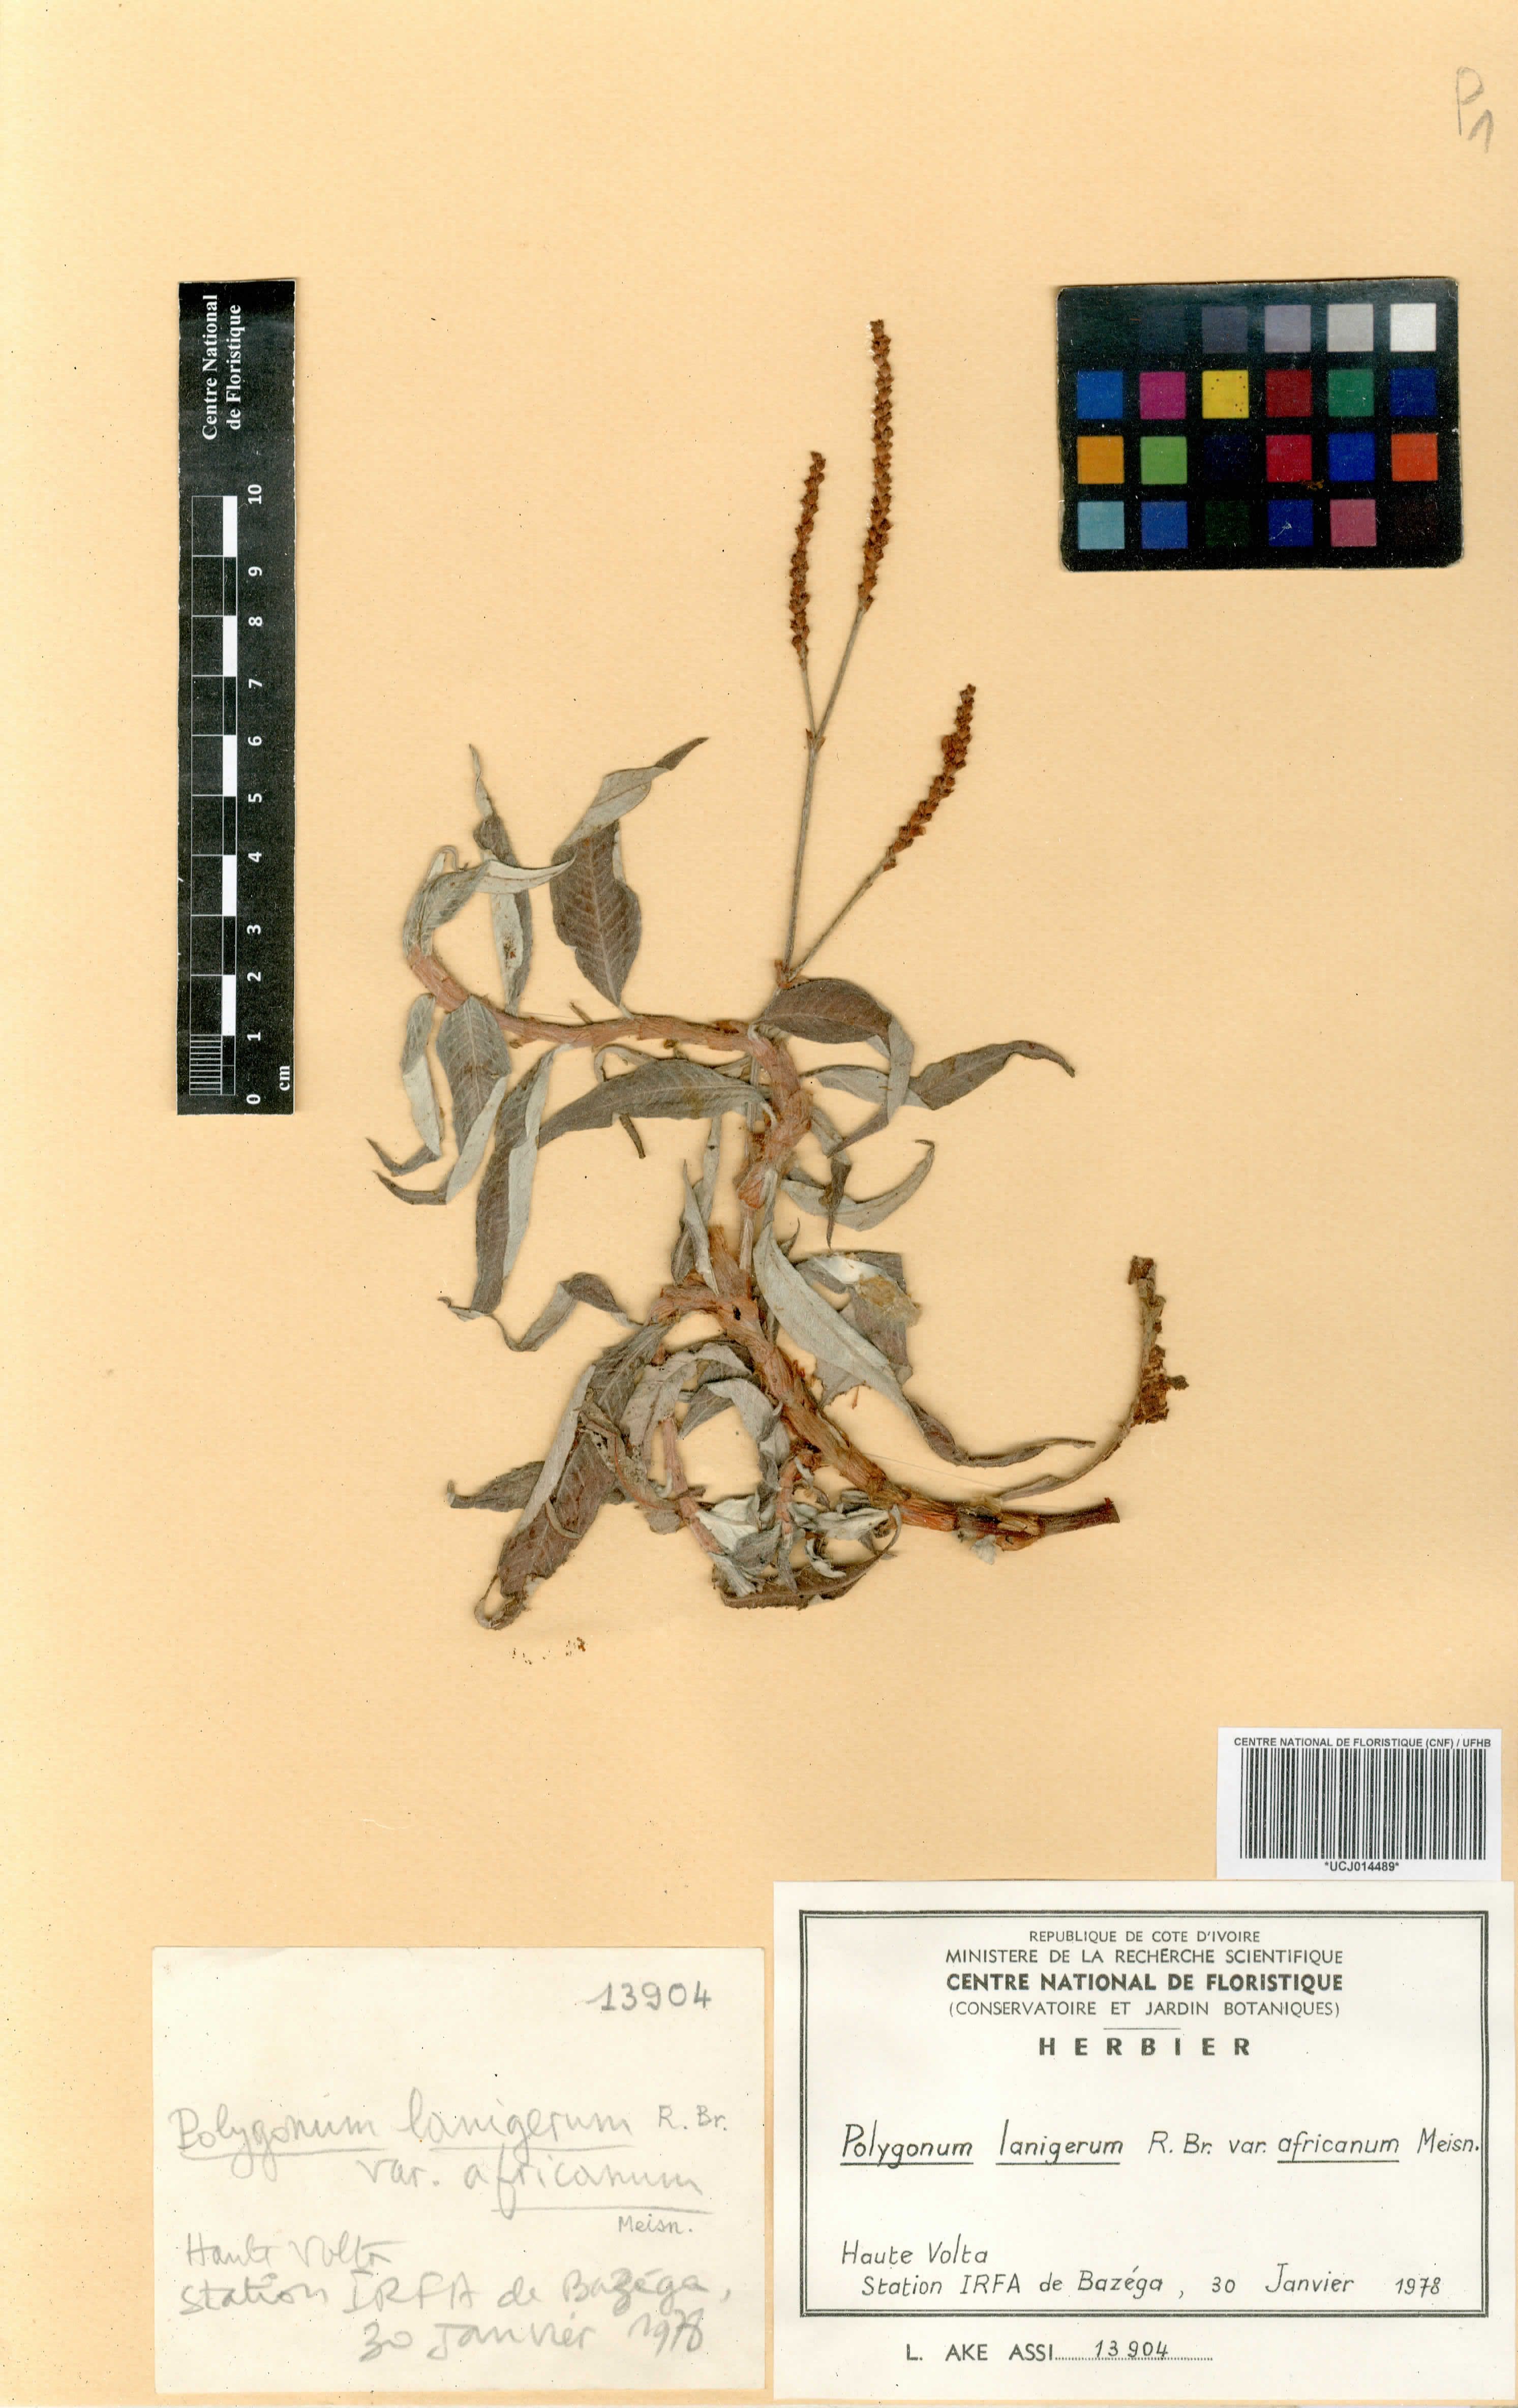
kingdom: Plantae
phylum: Tracheophyta
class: Magnoliopsida
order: Caryophyllales
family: Polygonaceae
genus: Persicaria
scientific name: Persicaria senegalensis
